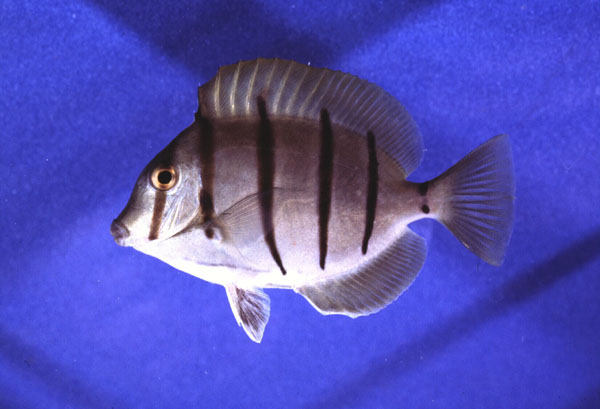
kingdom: Animalia
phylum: Chordata
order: Perciformes
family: Acanthuridae
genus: Acanthurus
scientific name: Acanthurus triostegus
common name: Convict surgeonfish
